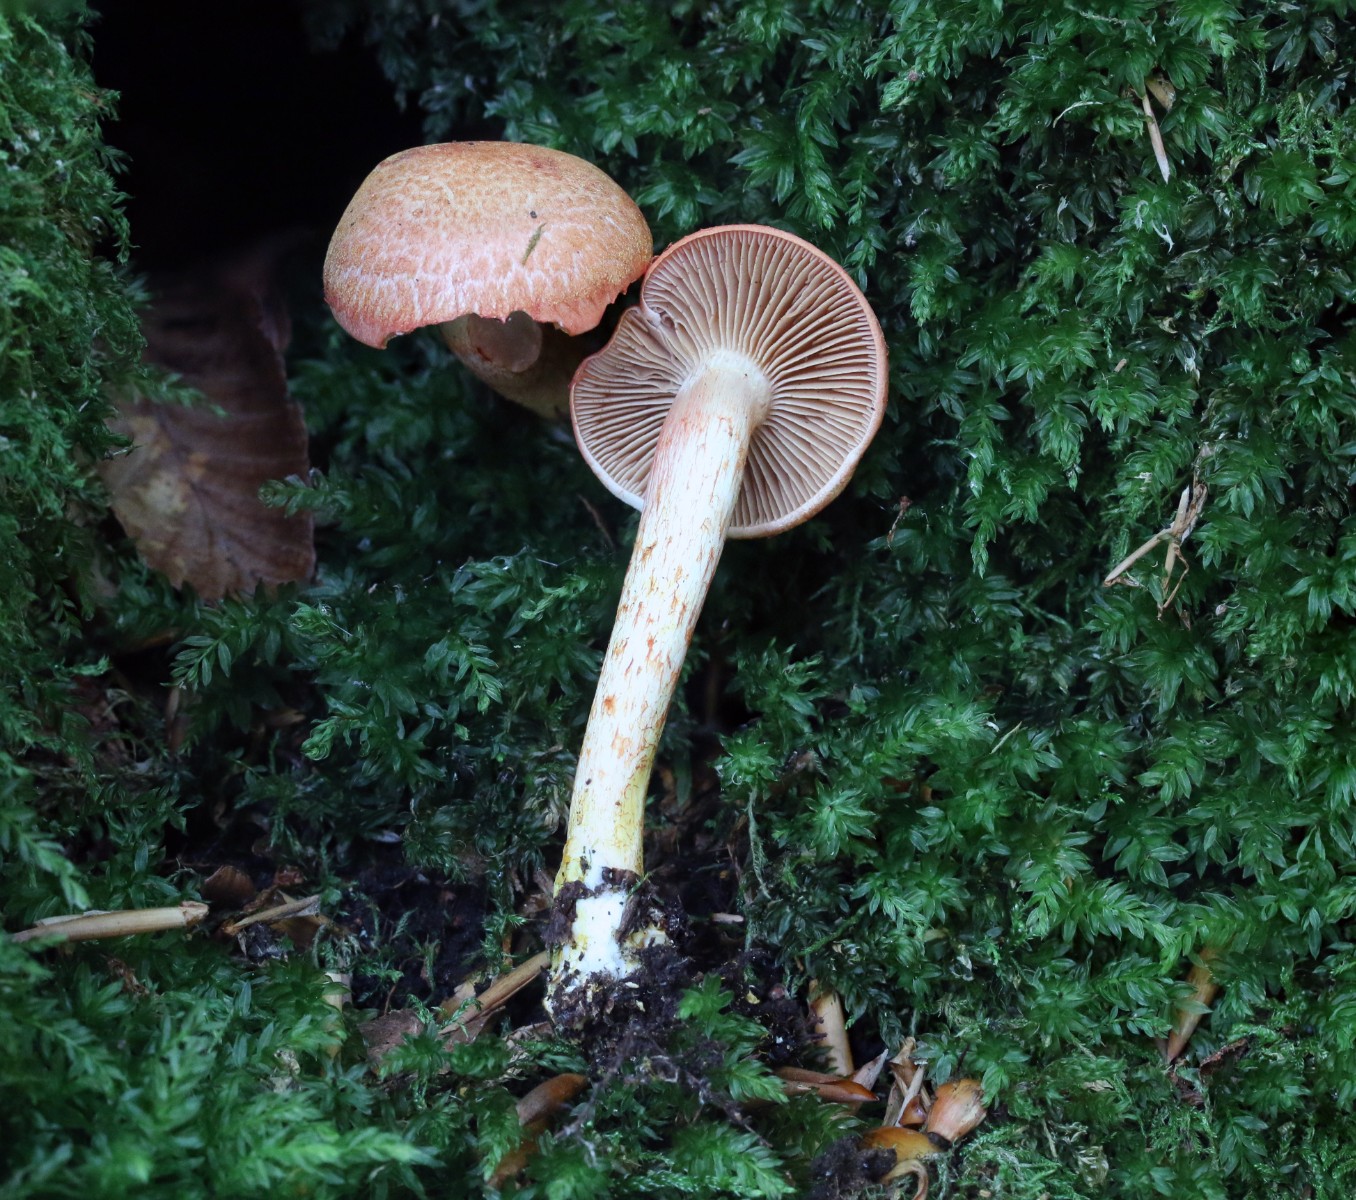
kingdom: Fungi
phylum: Basidiomycota
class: Agaricomycetes
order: Agaricales
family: Cortinariaceae
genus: Cortinarius
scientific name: Cortinarius bolaris
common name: cinnoberskællet slørhat
